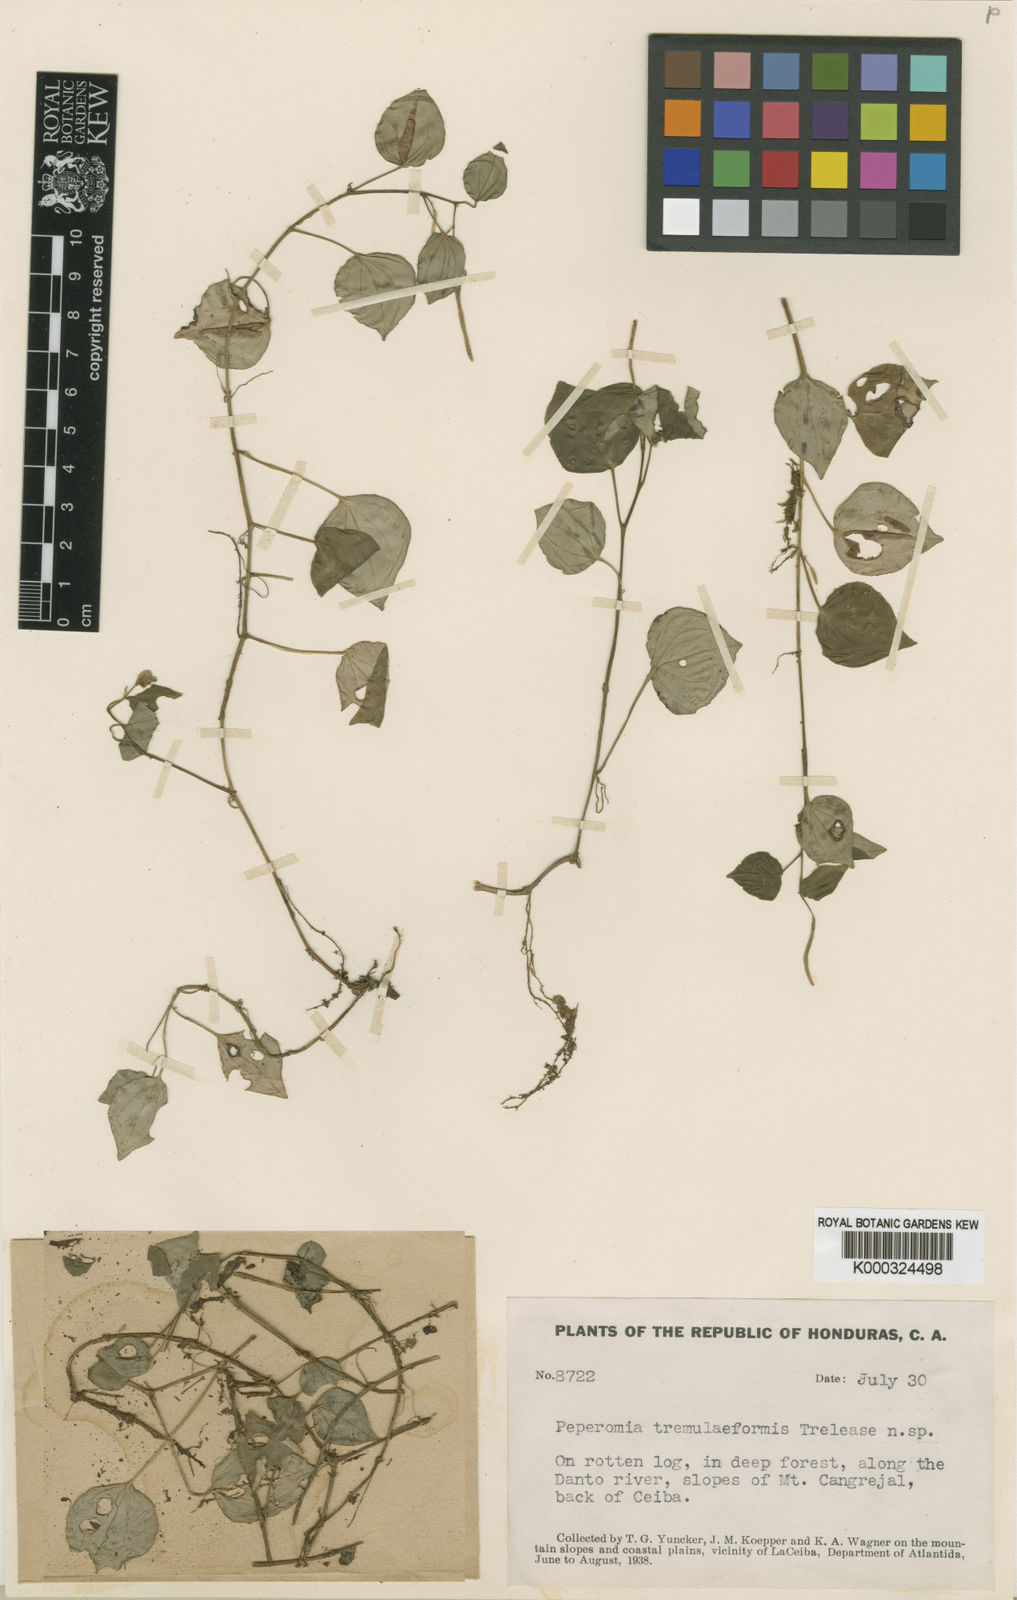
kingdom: Plantae
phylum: Tracheophyta
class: Magnoliopsida
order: Piperales
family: Piperaceae
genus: Peperomia
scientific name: Peperomia urocarpa
